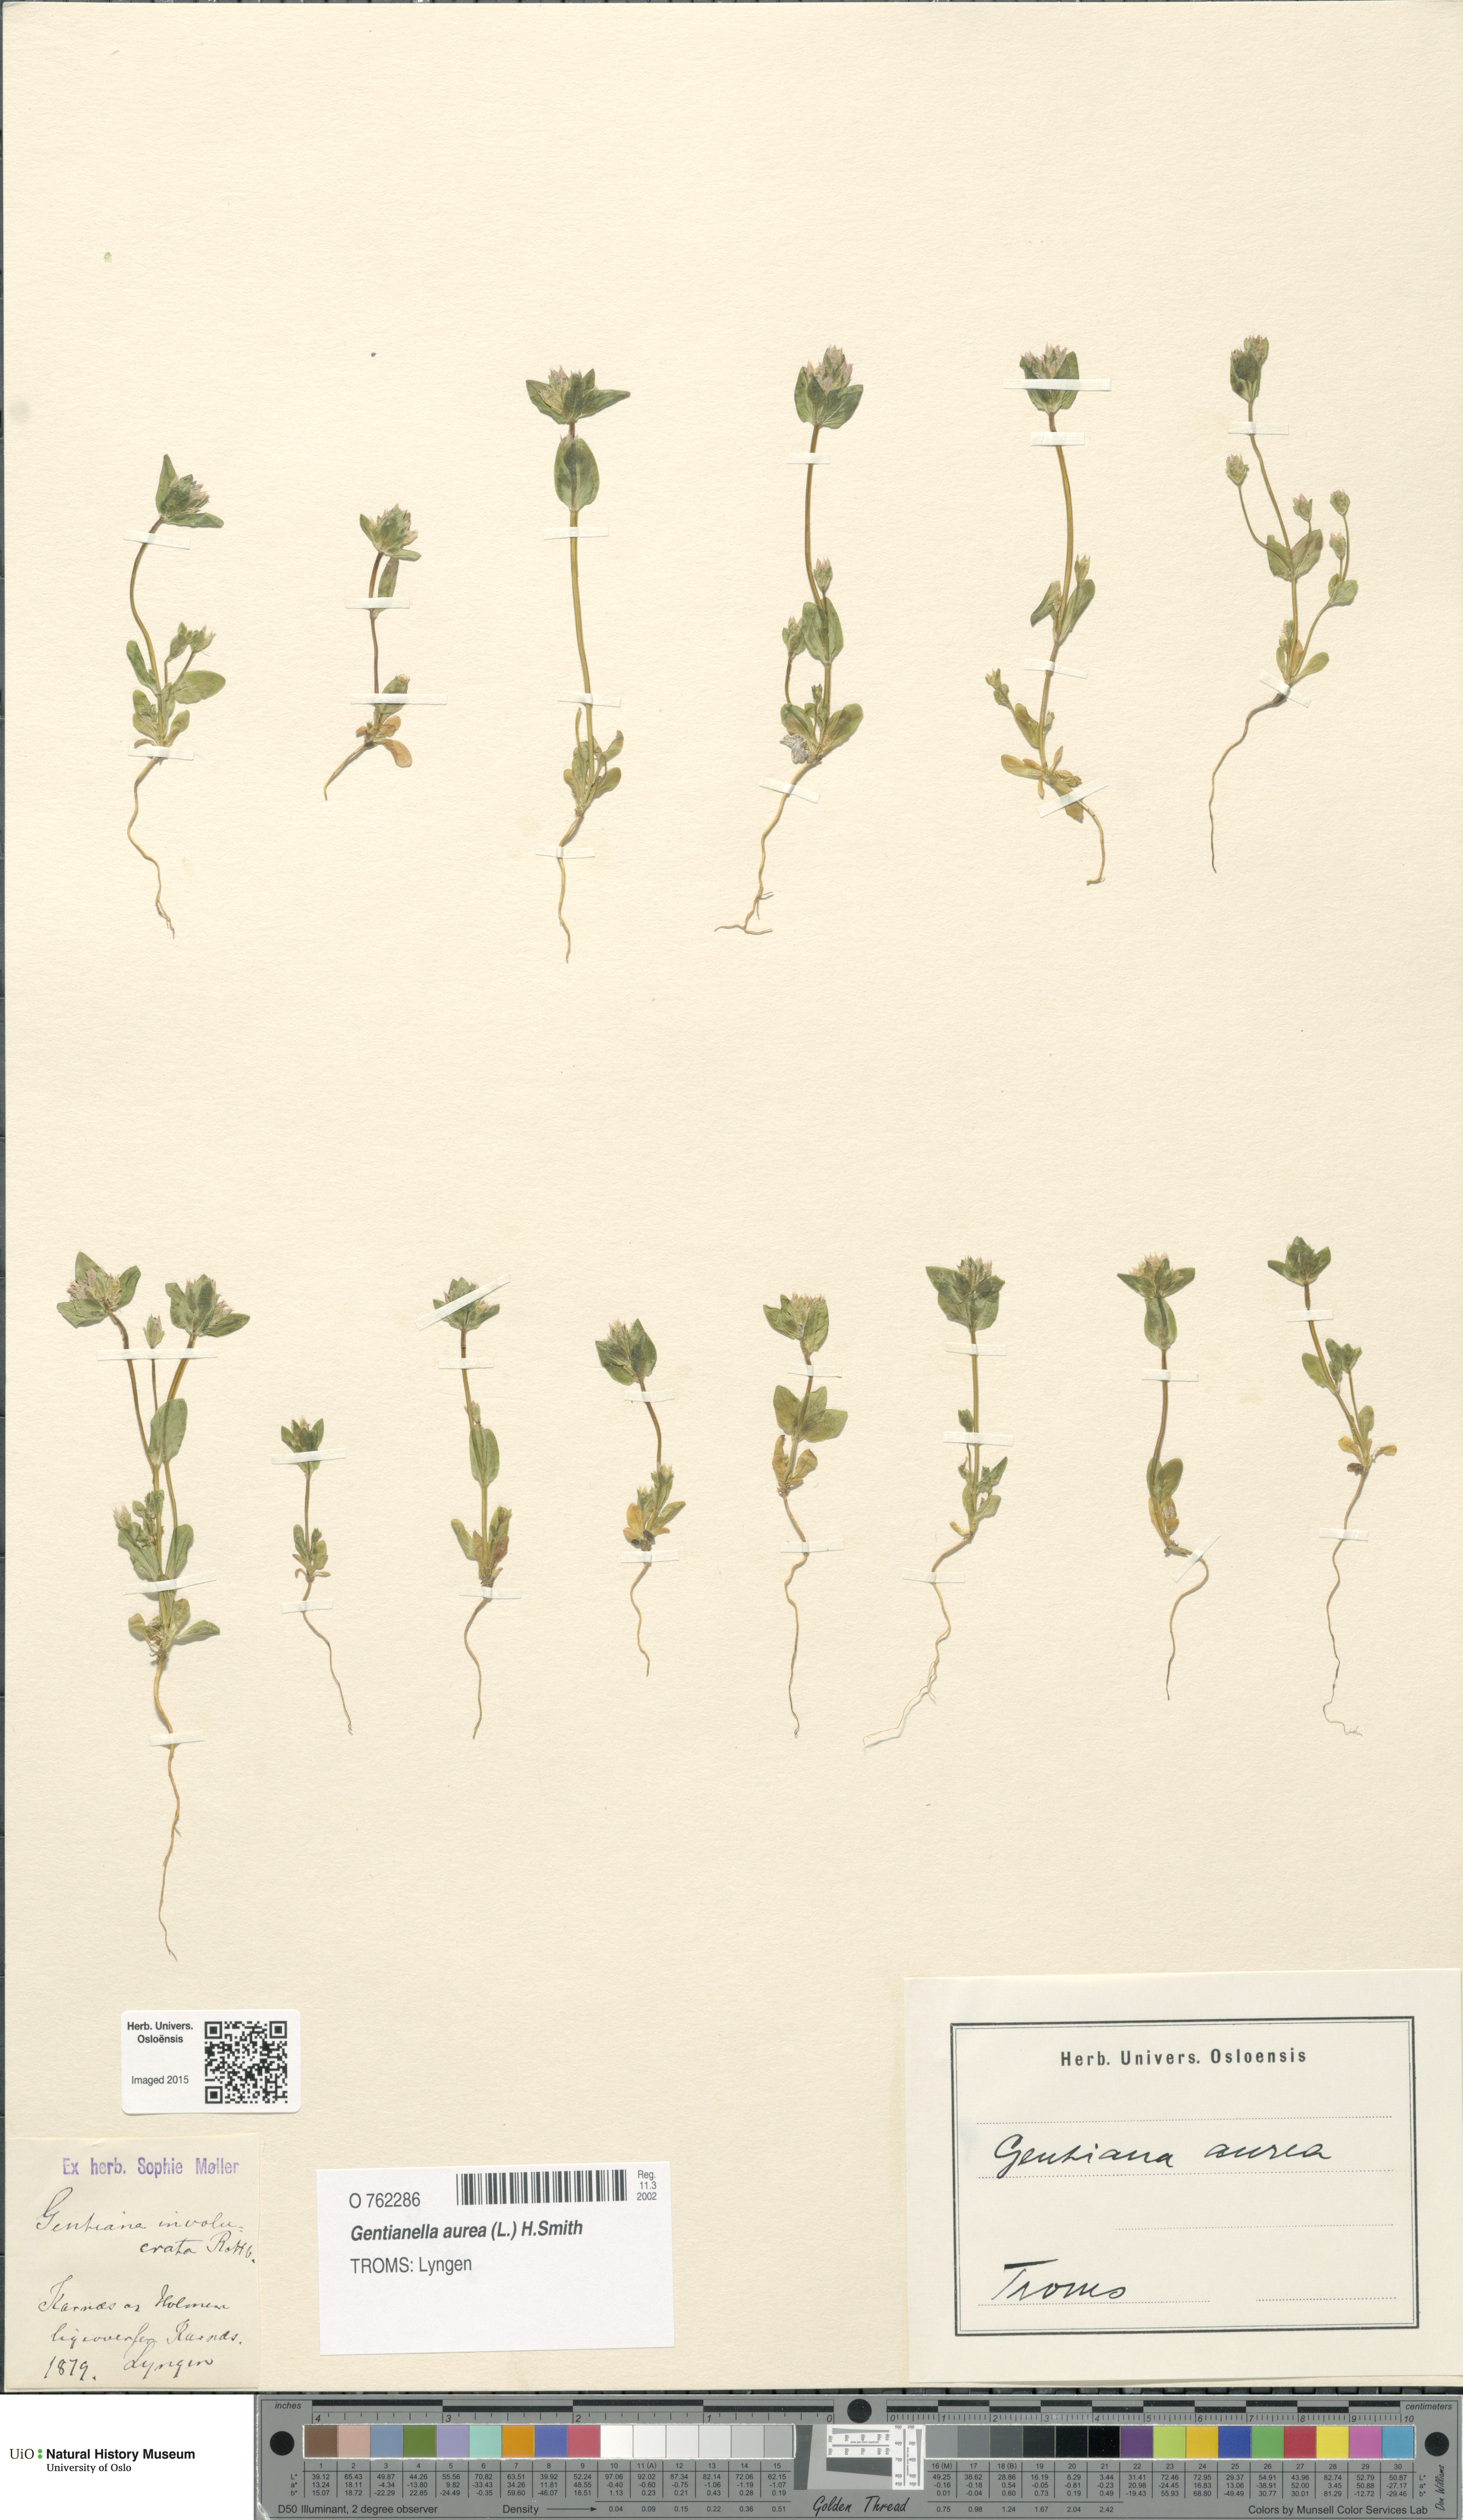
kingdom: Plantae
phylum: Tracheophyta
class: Magnoliopsida
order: Gentianales
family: Gentianaceae
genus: Gentianella
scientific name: Gentianella aurea
